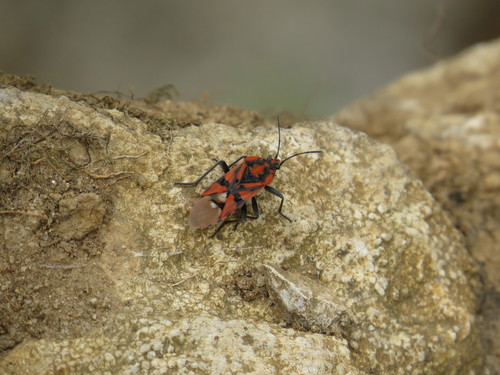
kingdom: Animalia
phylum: Arthropoda
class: Insecta
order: Hemiptera
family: Lygaeidae
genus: Spilostethus
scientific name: Spilostethus pandurus
